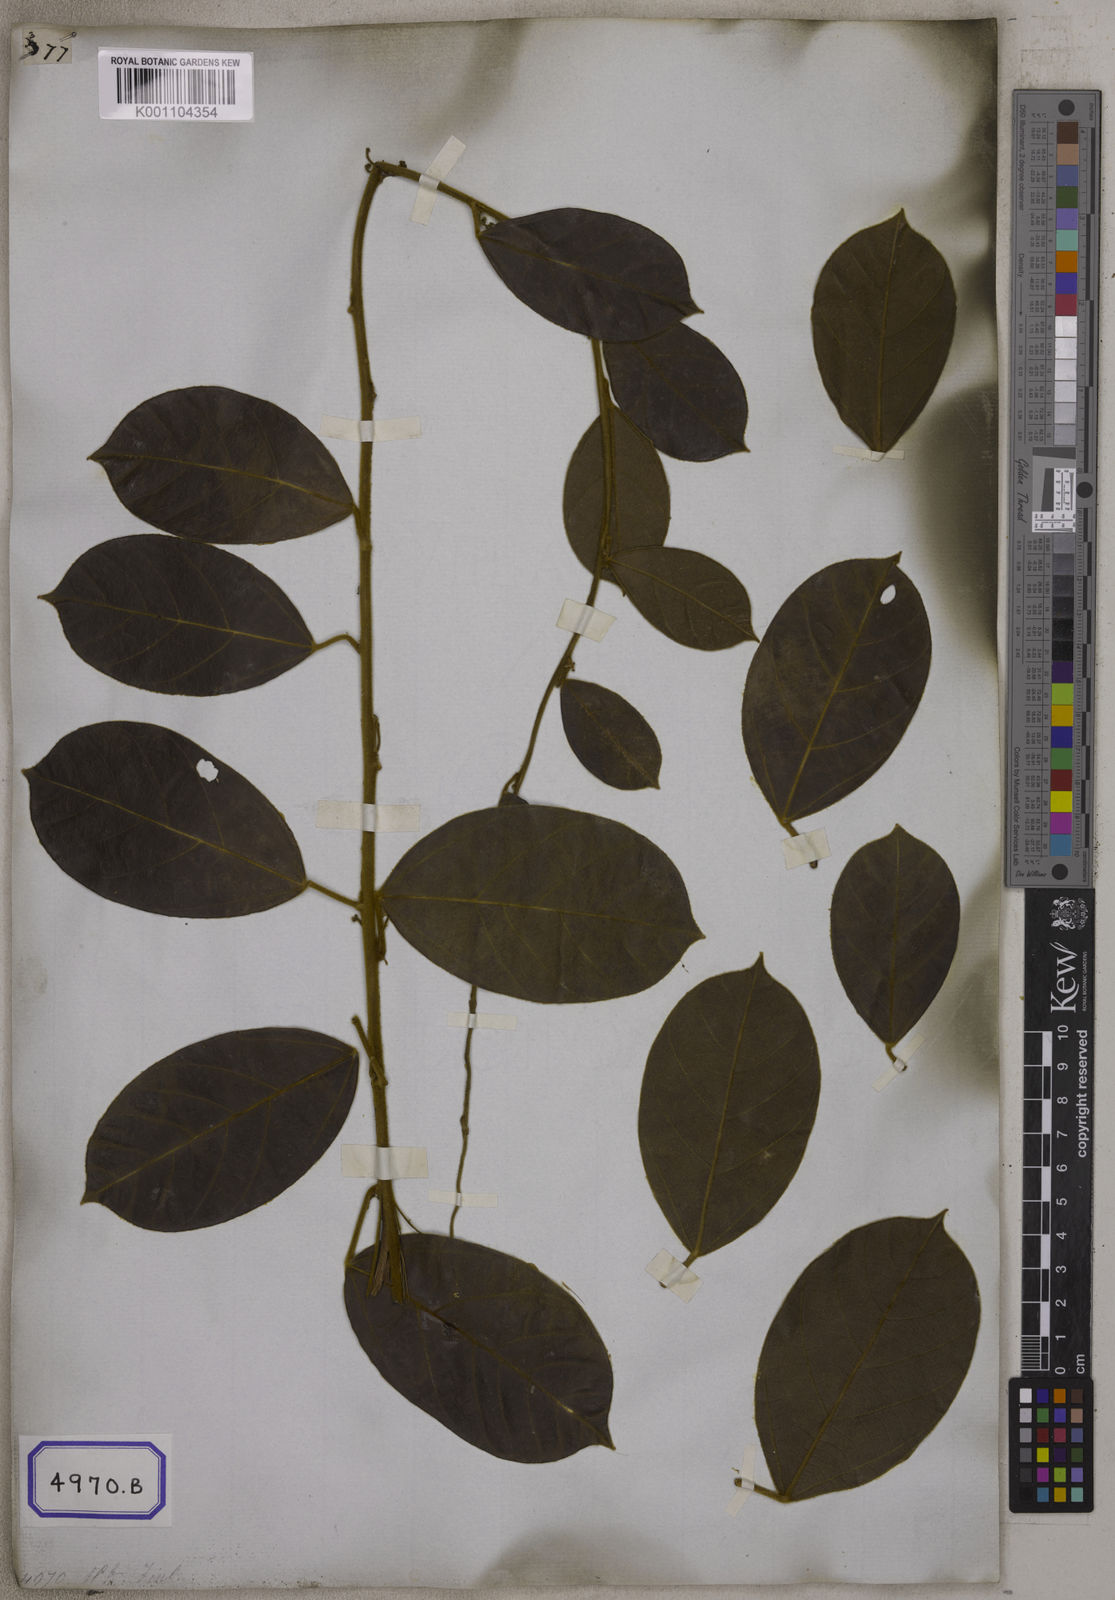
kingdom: Plantae
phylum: Tracheophyta
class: Magnoliopsida
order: Ranunculales
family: Menispermaceae
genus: Limacia
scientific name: Limacia scandens
